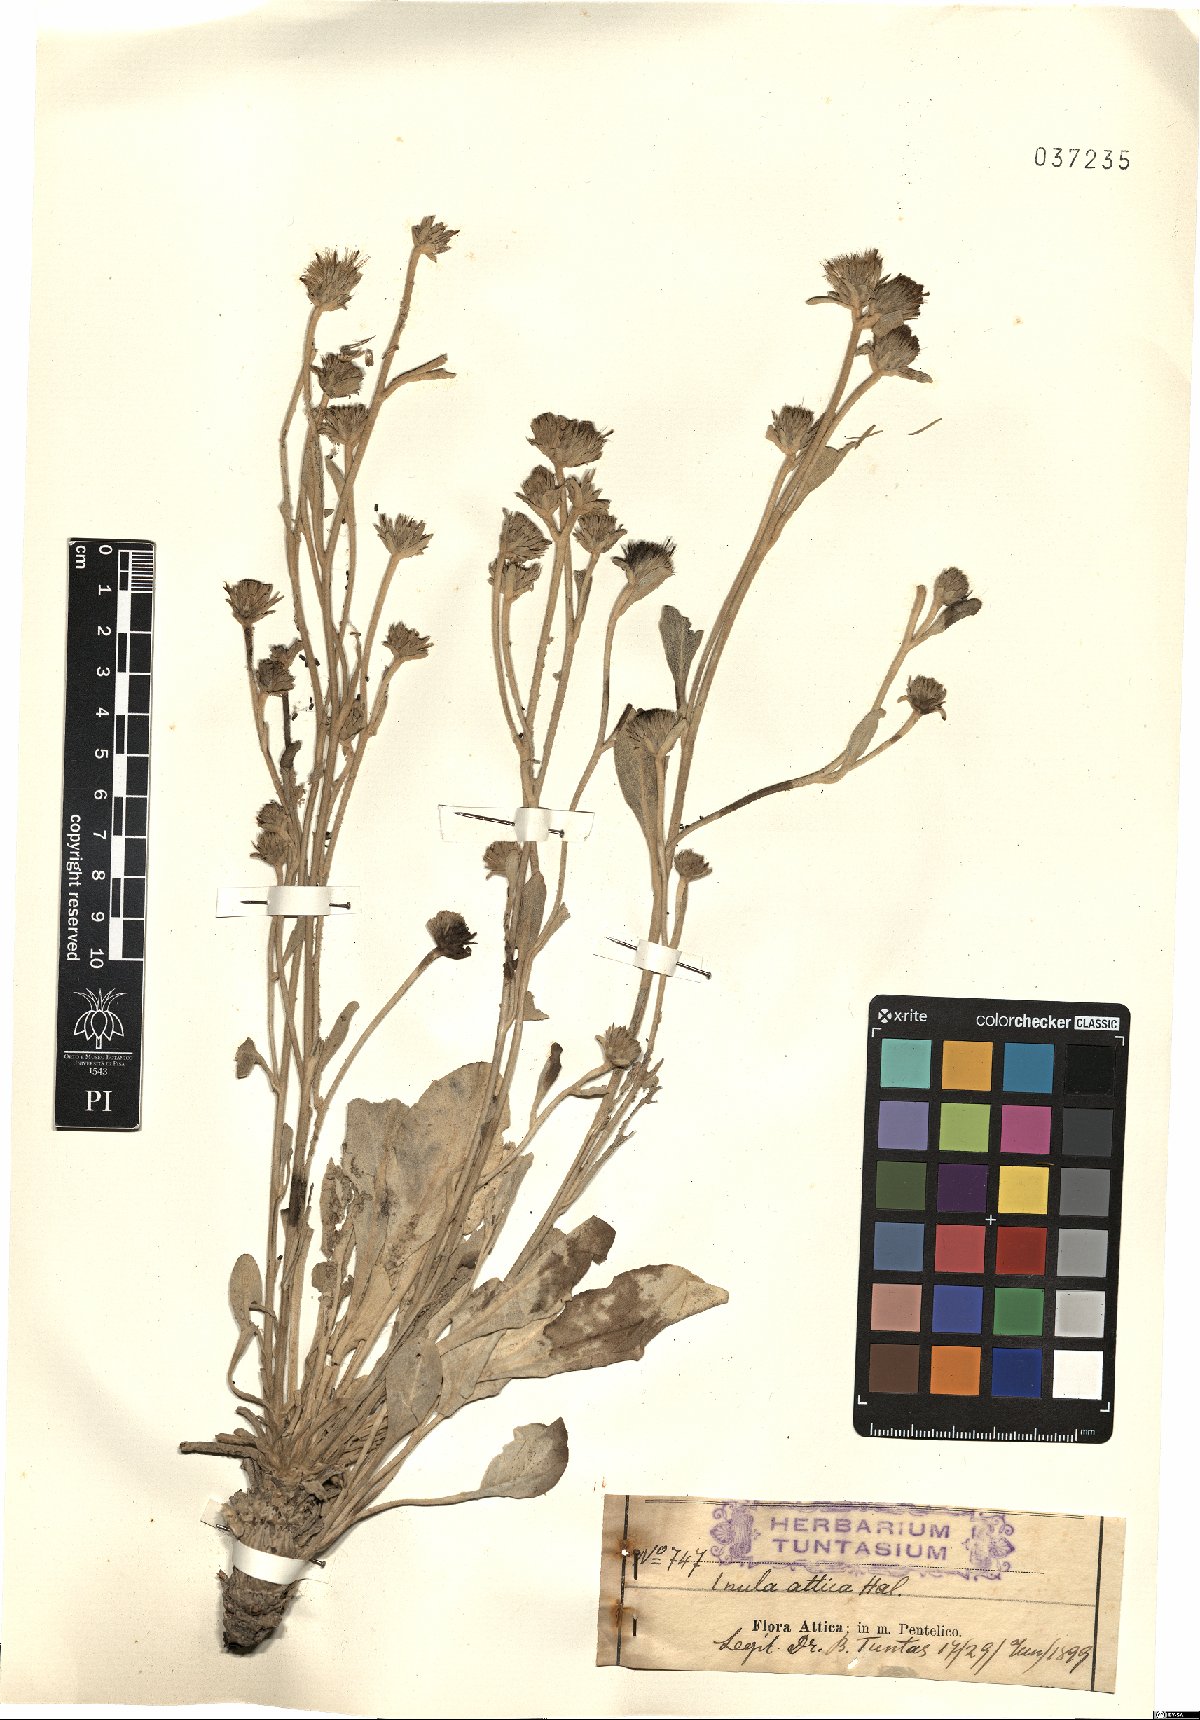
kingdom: Plantae
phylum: Tracheophyta
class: Magnoliopsida
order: Asterales
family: Asteraceae
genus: Pentanema
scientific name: Pentanema verbascifolium
